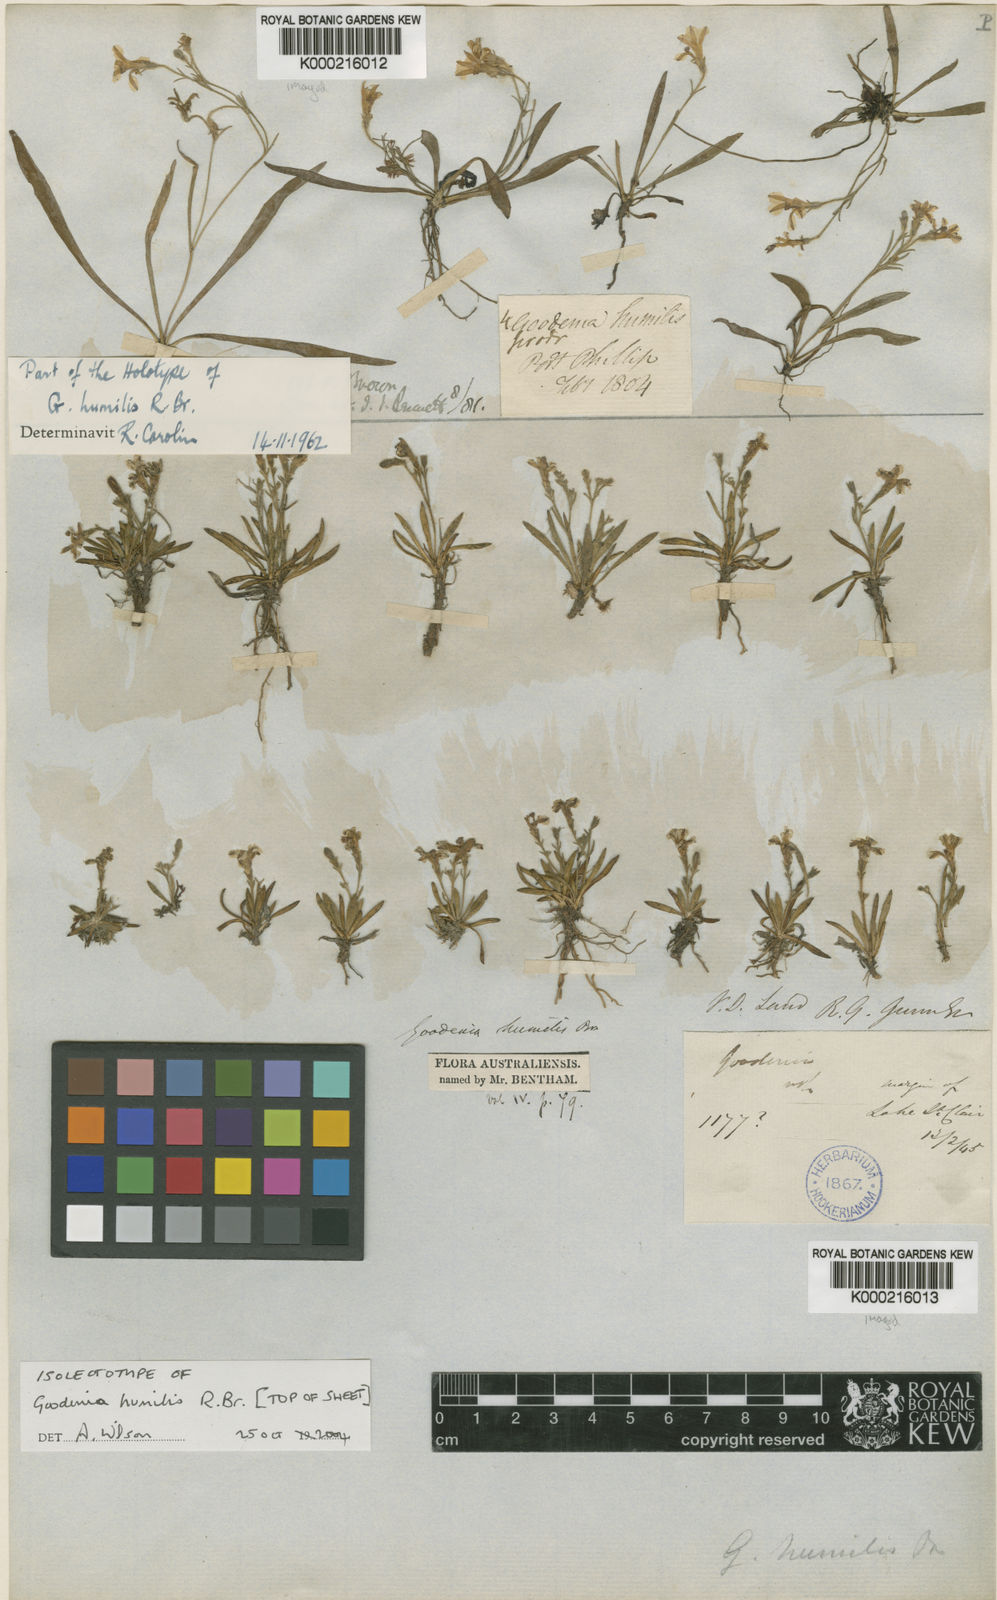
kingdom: Plantae
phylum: Tracheophyta
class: Magnoliopsida
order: Asterales
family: Goodeniaceae
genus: Goodenia
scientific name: Goodenia humilis
